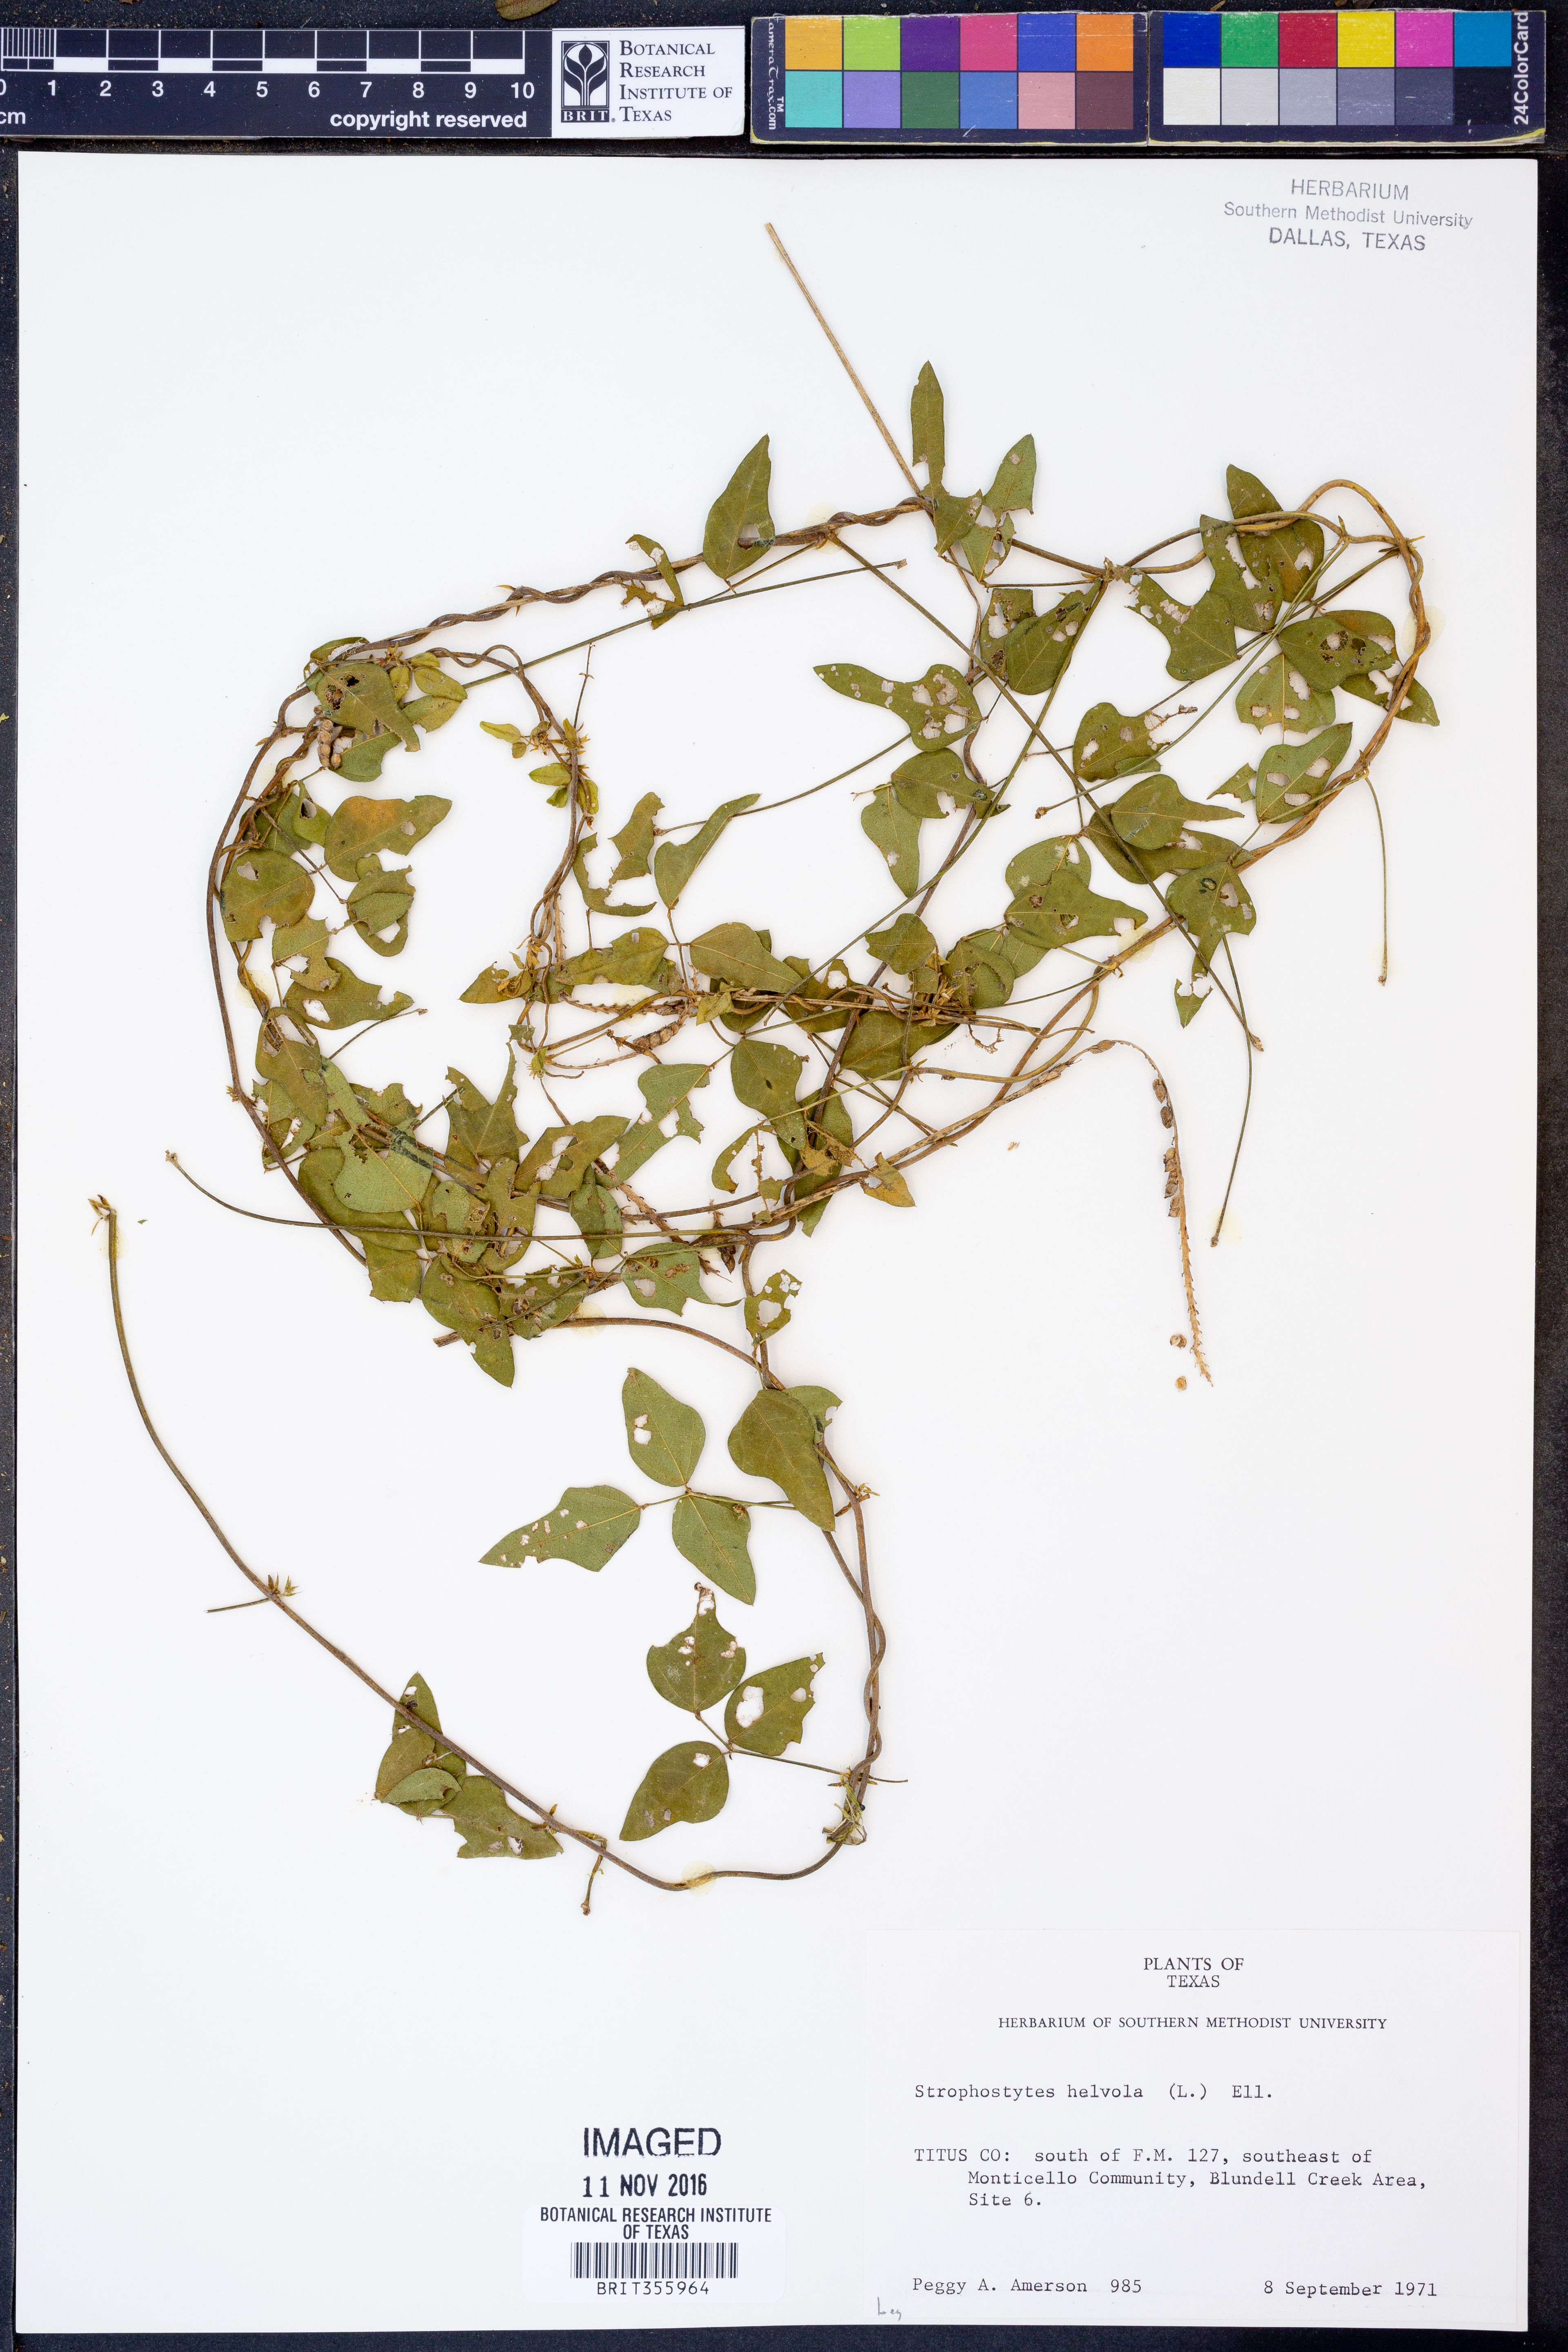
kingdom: Plantae
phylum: Tracheophyta
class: Magnoliopsida
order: Fabales
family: Fabaceae
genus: Strophostyles
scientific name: Strophostyles helvola
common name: Trailing wild bean
